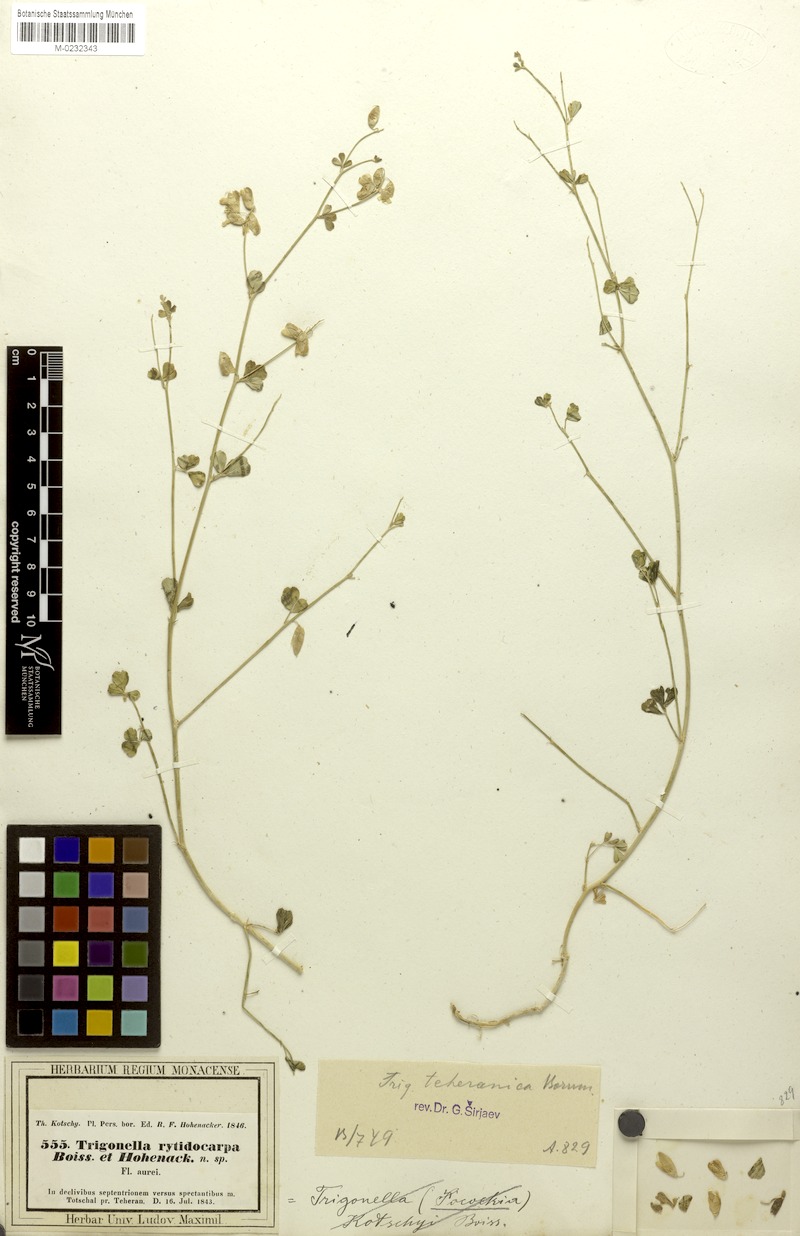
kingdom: Plantae
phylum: Tracheophyta
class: Magnoliopsida
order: Fabales
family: Fabaceae
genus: Trigonella
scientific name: Trigonella teheranica
